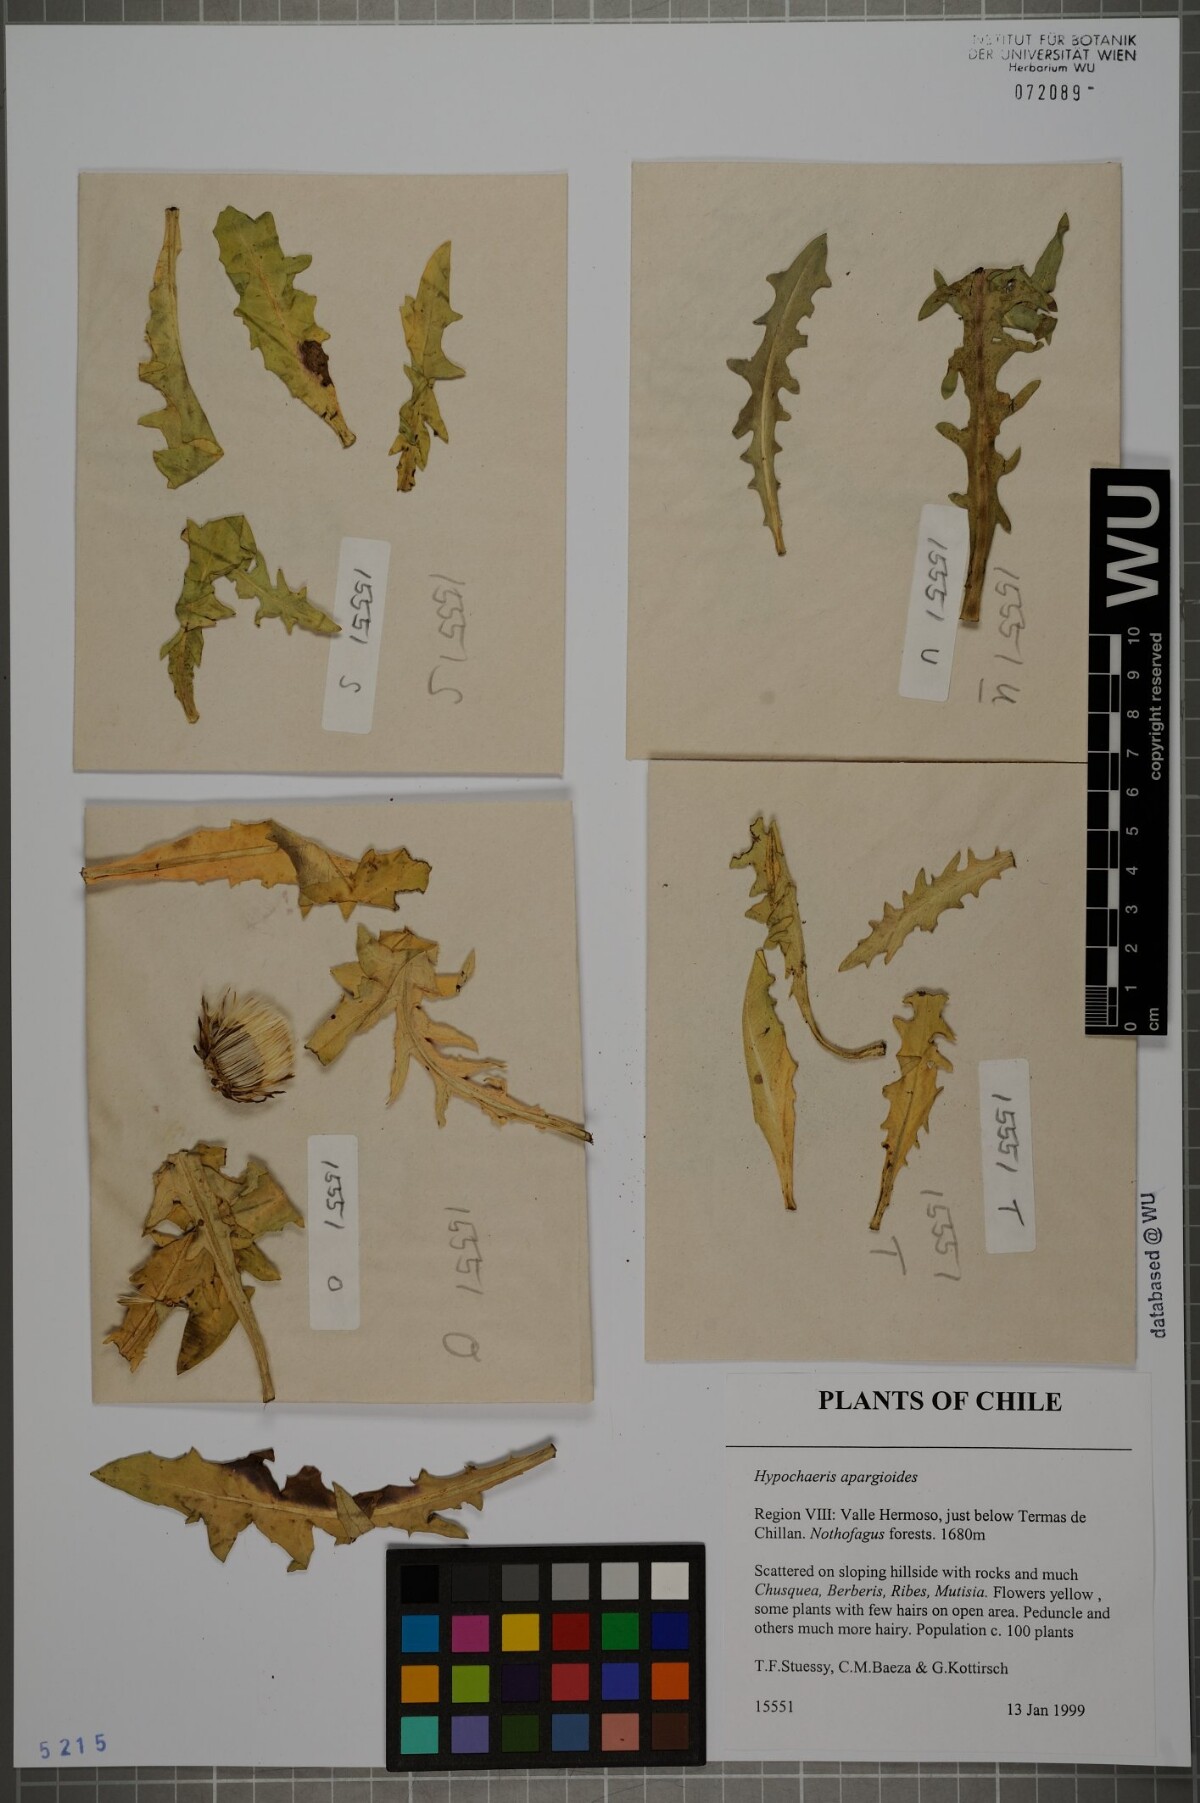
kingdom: Plantae
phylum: Tracheophyta
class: Magnoliopsida
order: Asterales
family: Asteraceae
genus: Hypochaeris
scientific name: Hypochaeris apargioides
